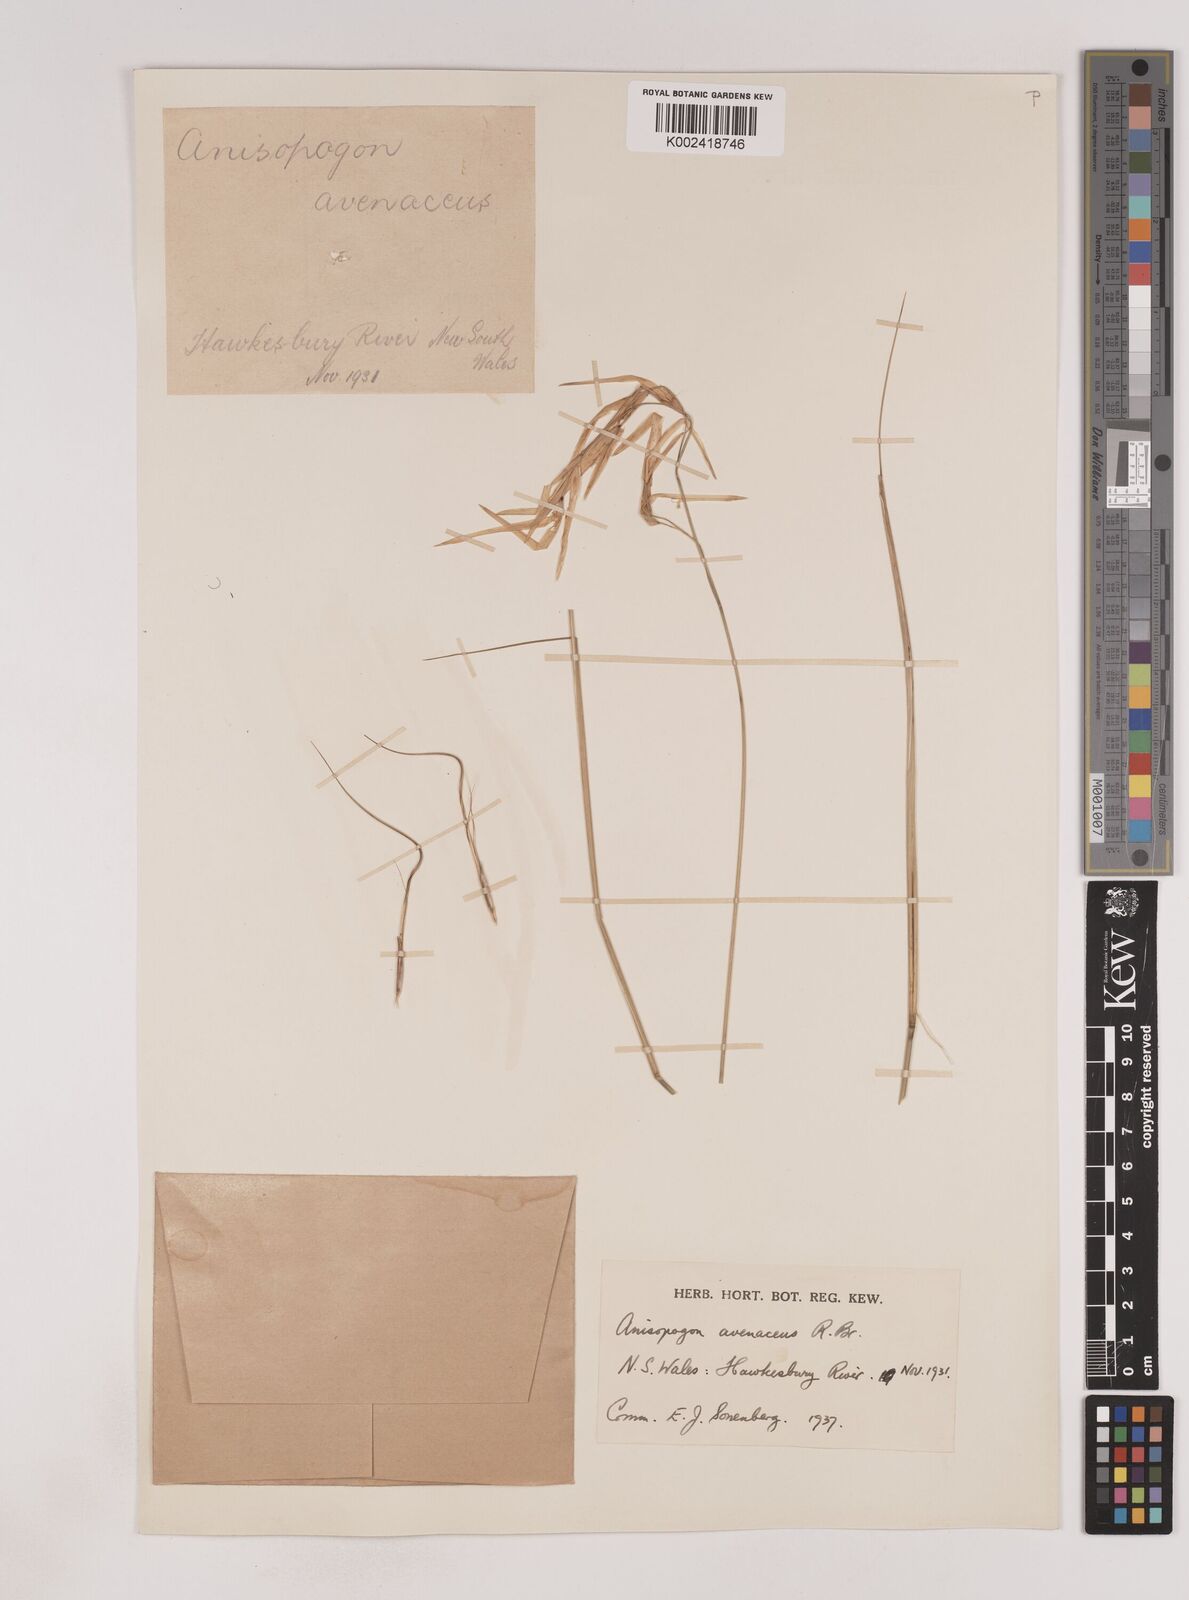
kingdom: Plantae
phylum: Tracheophyta
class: Liliopsida
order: Poales
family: Poaceae
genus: Anisopogon
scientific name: Anisopogon avenaceus
